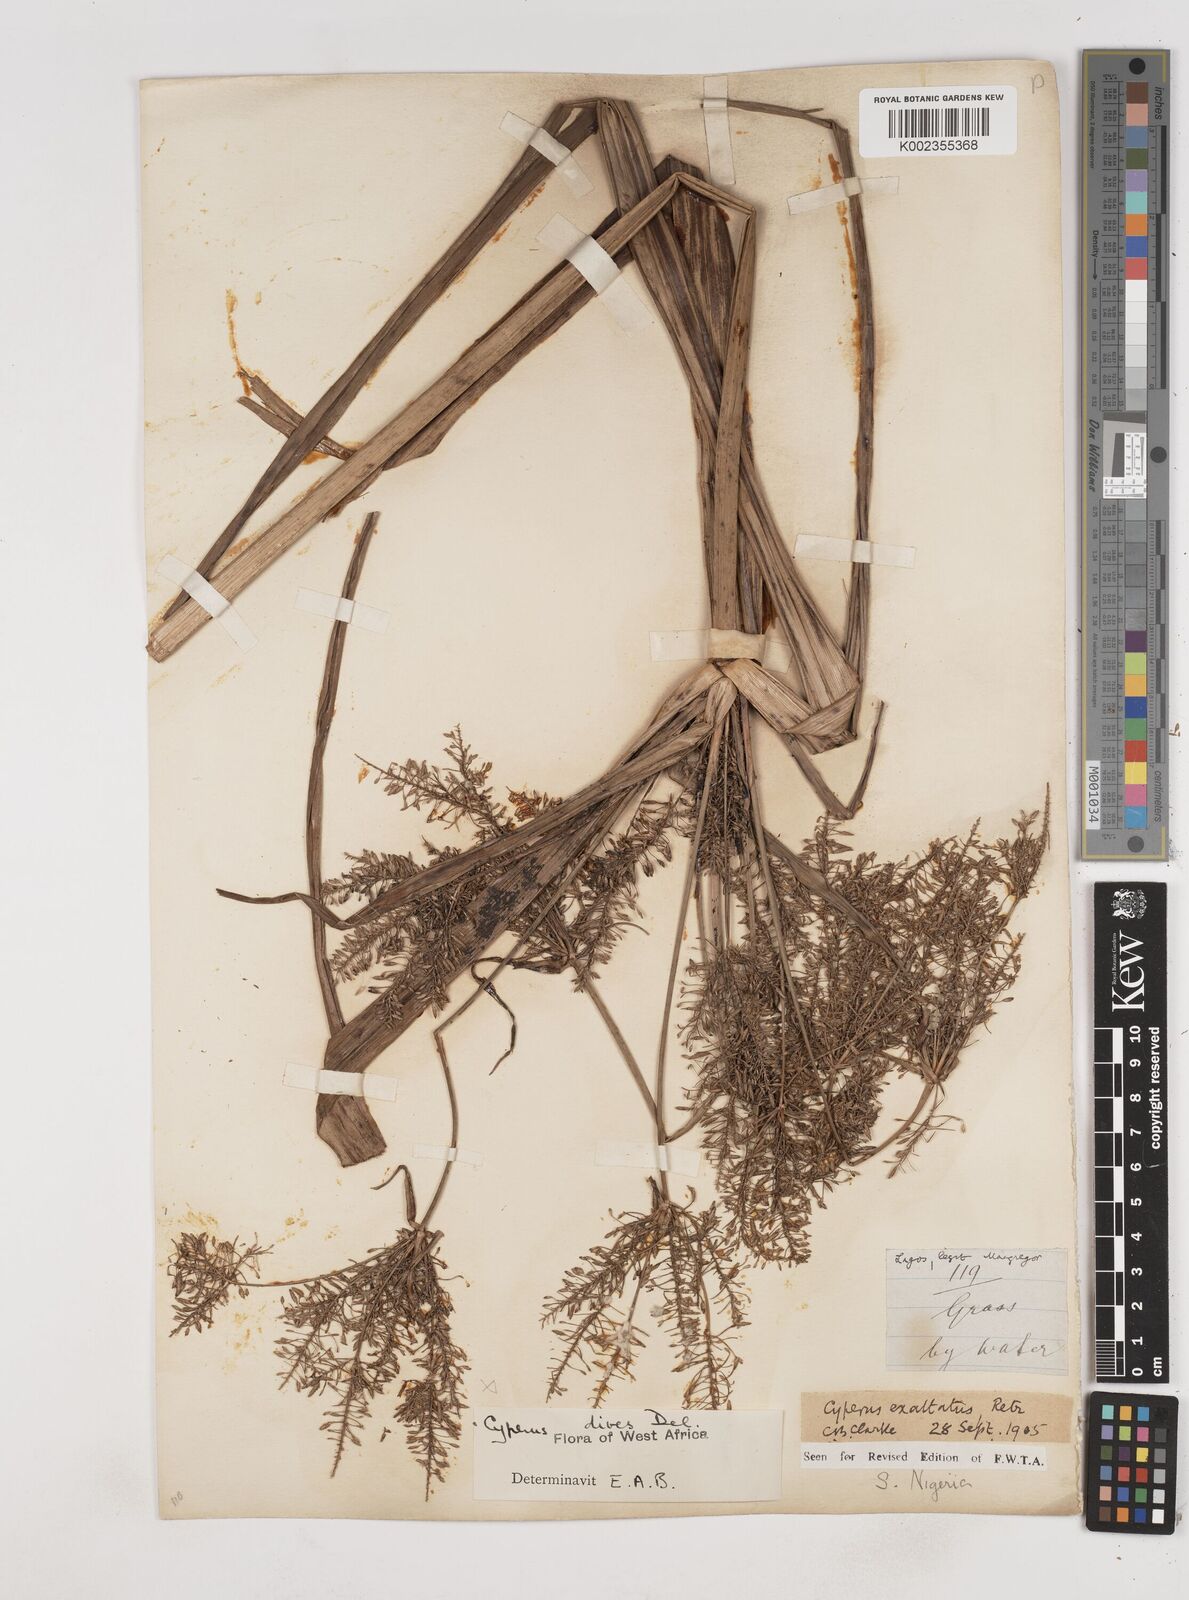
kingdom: Plantae
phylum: Tracheophyta
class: Liliopsida
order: Poales
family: Cyperaceae
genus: Cyperus
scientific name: Cyperus exaltatus
